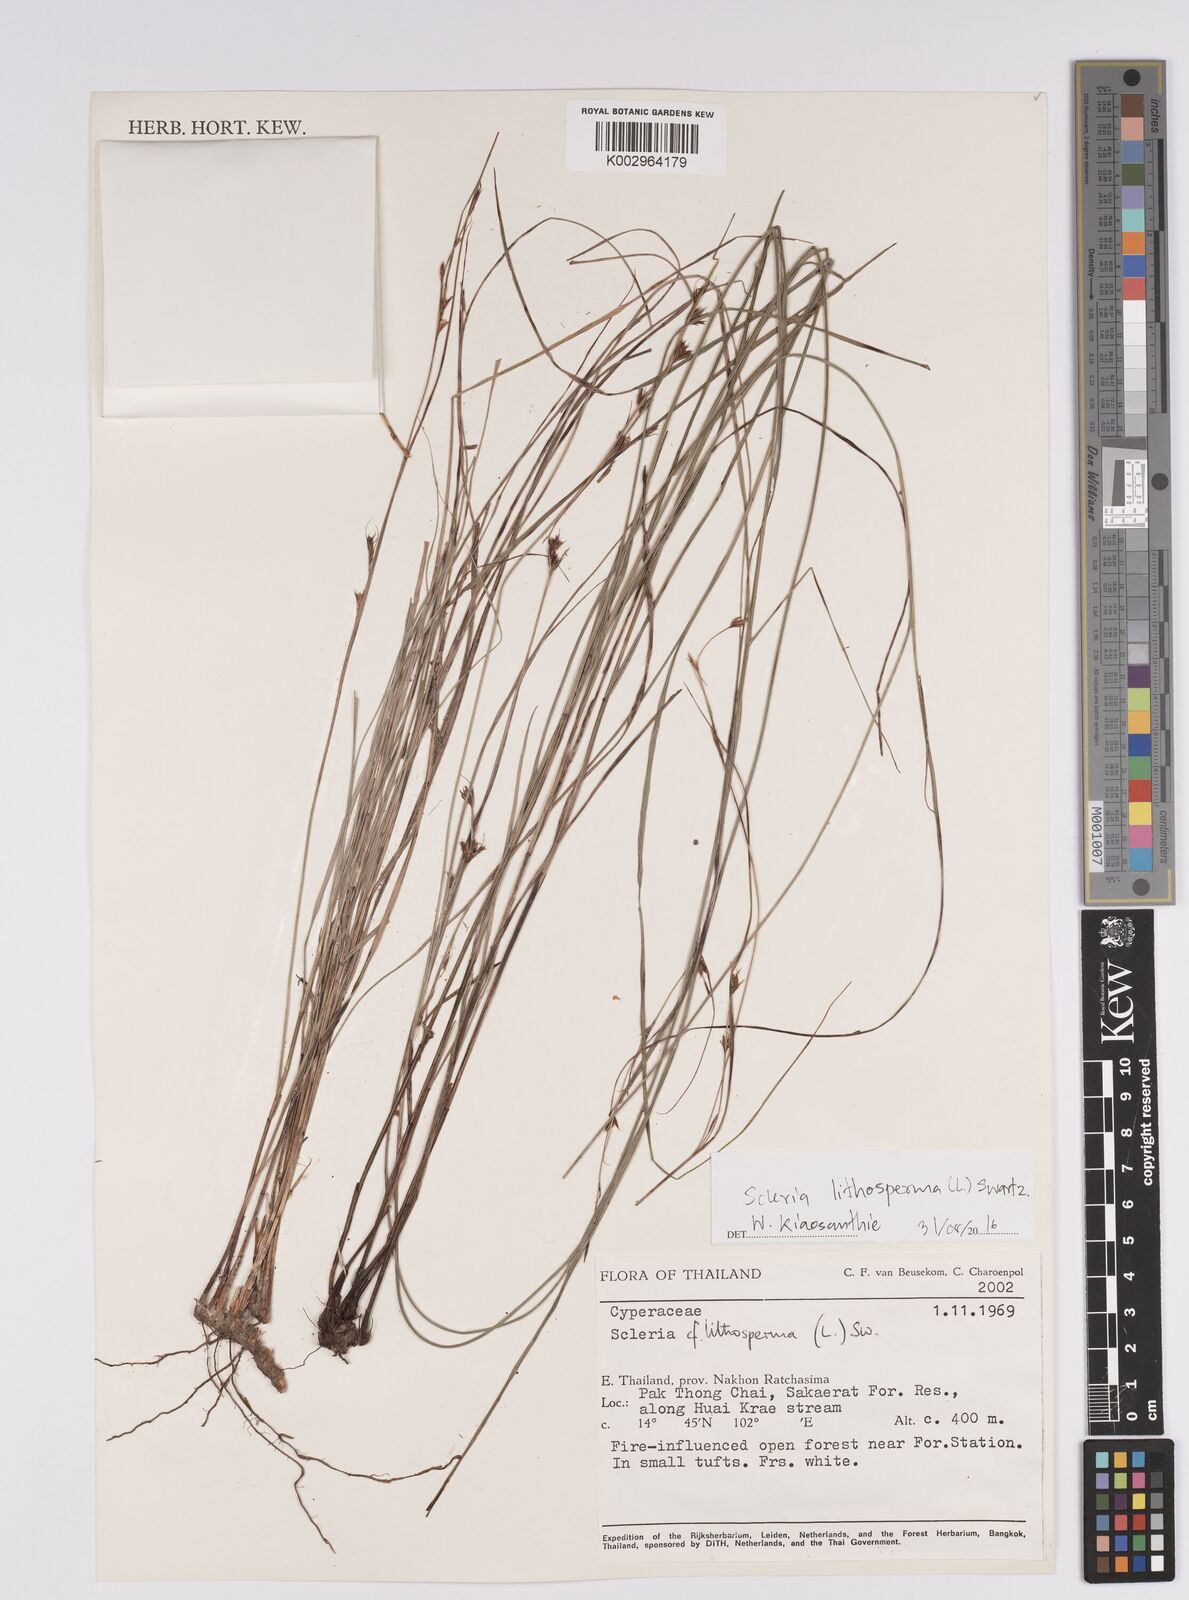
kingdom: Plantae
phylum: Tracheophyta
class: Liliopsida
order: Poales
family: Cyperaceae
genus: Scleria
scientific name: Scleria lithosperma
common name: Florida keys nut-rush
